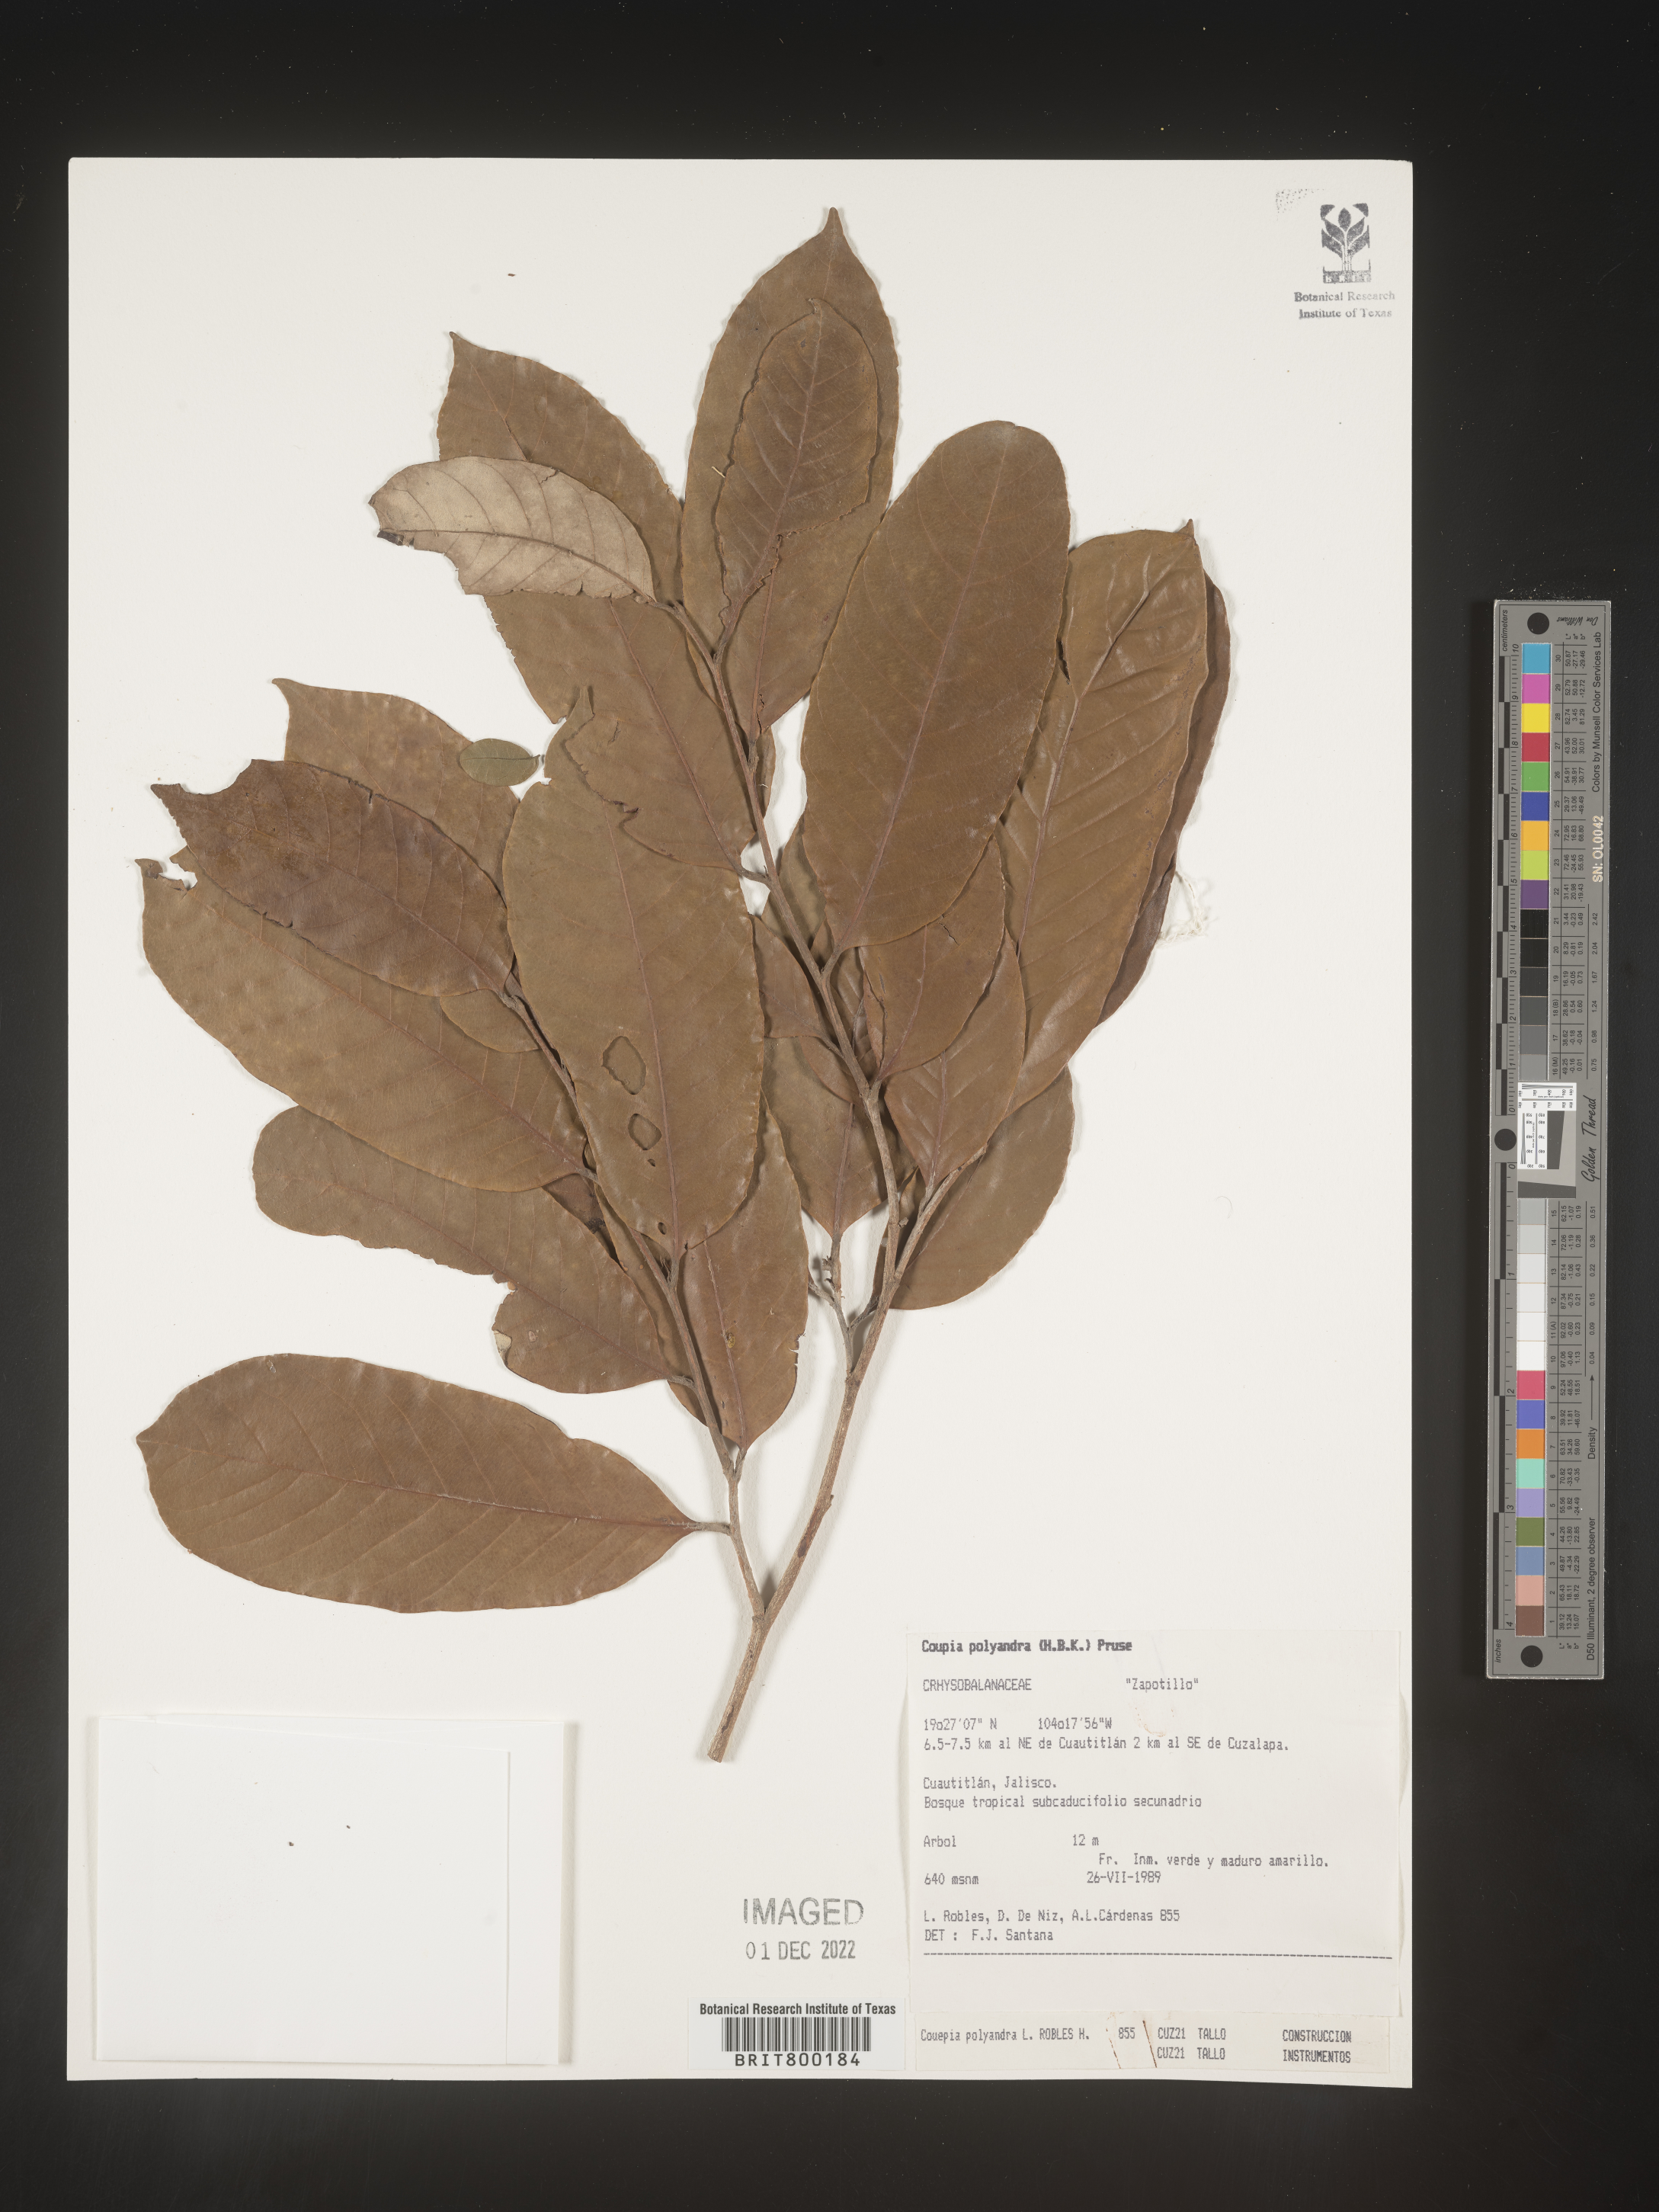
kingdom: Plantae
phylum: Tracheophyta
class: Magnoliopsida
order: Malpighiales
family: Chrysobalanaceae
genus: Couepia
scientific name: Couepia
